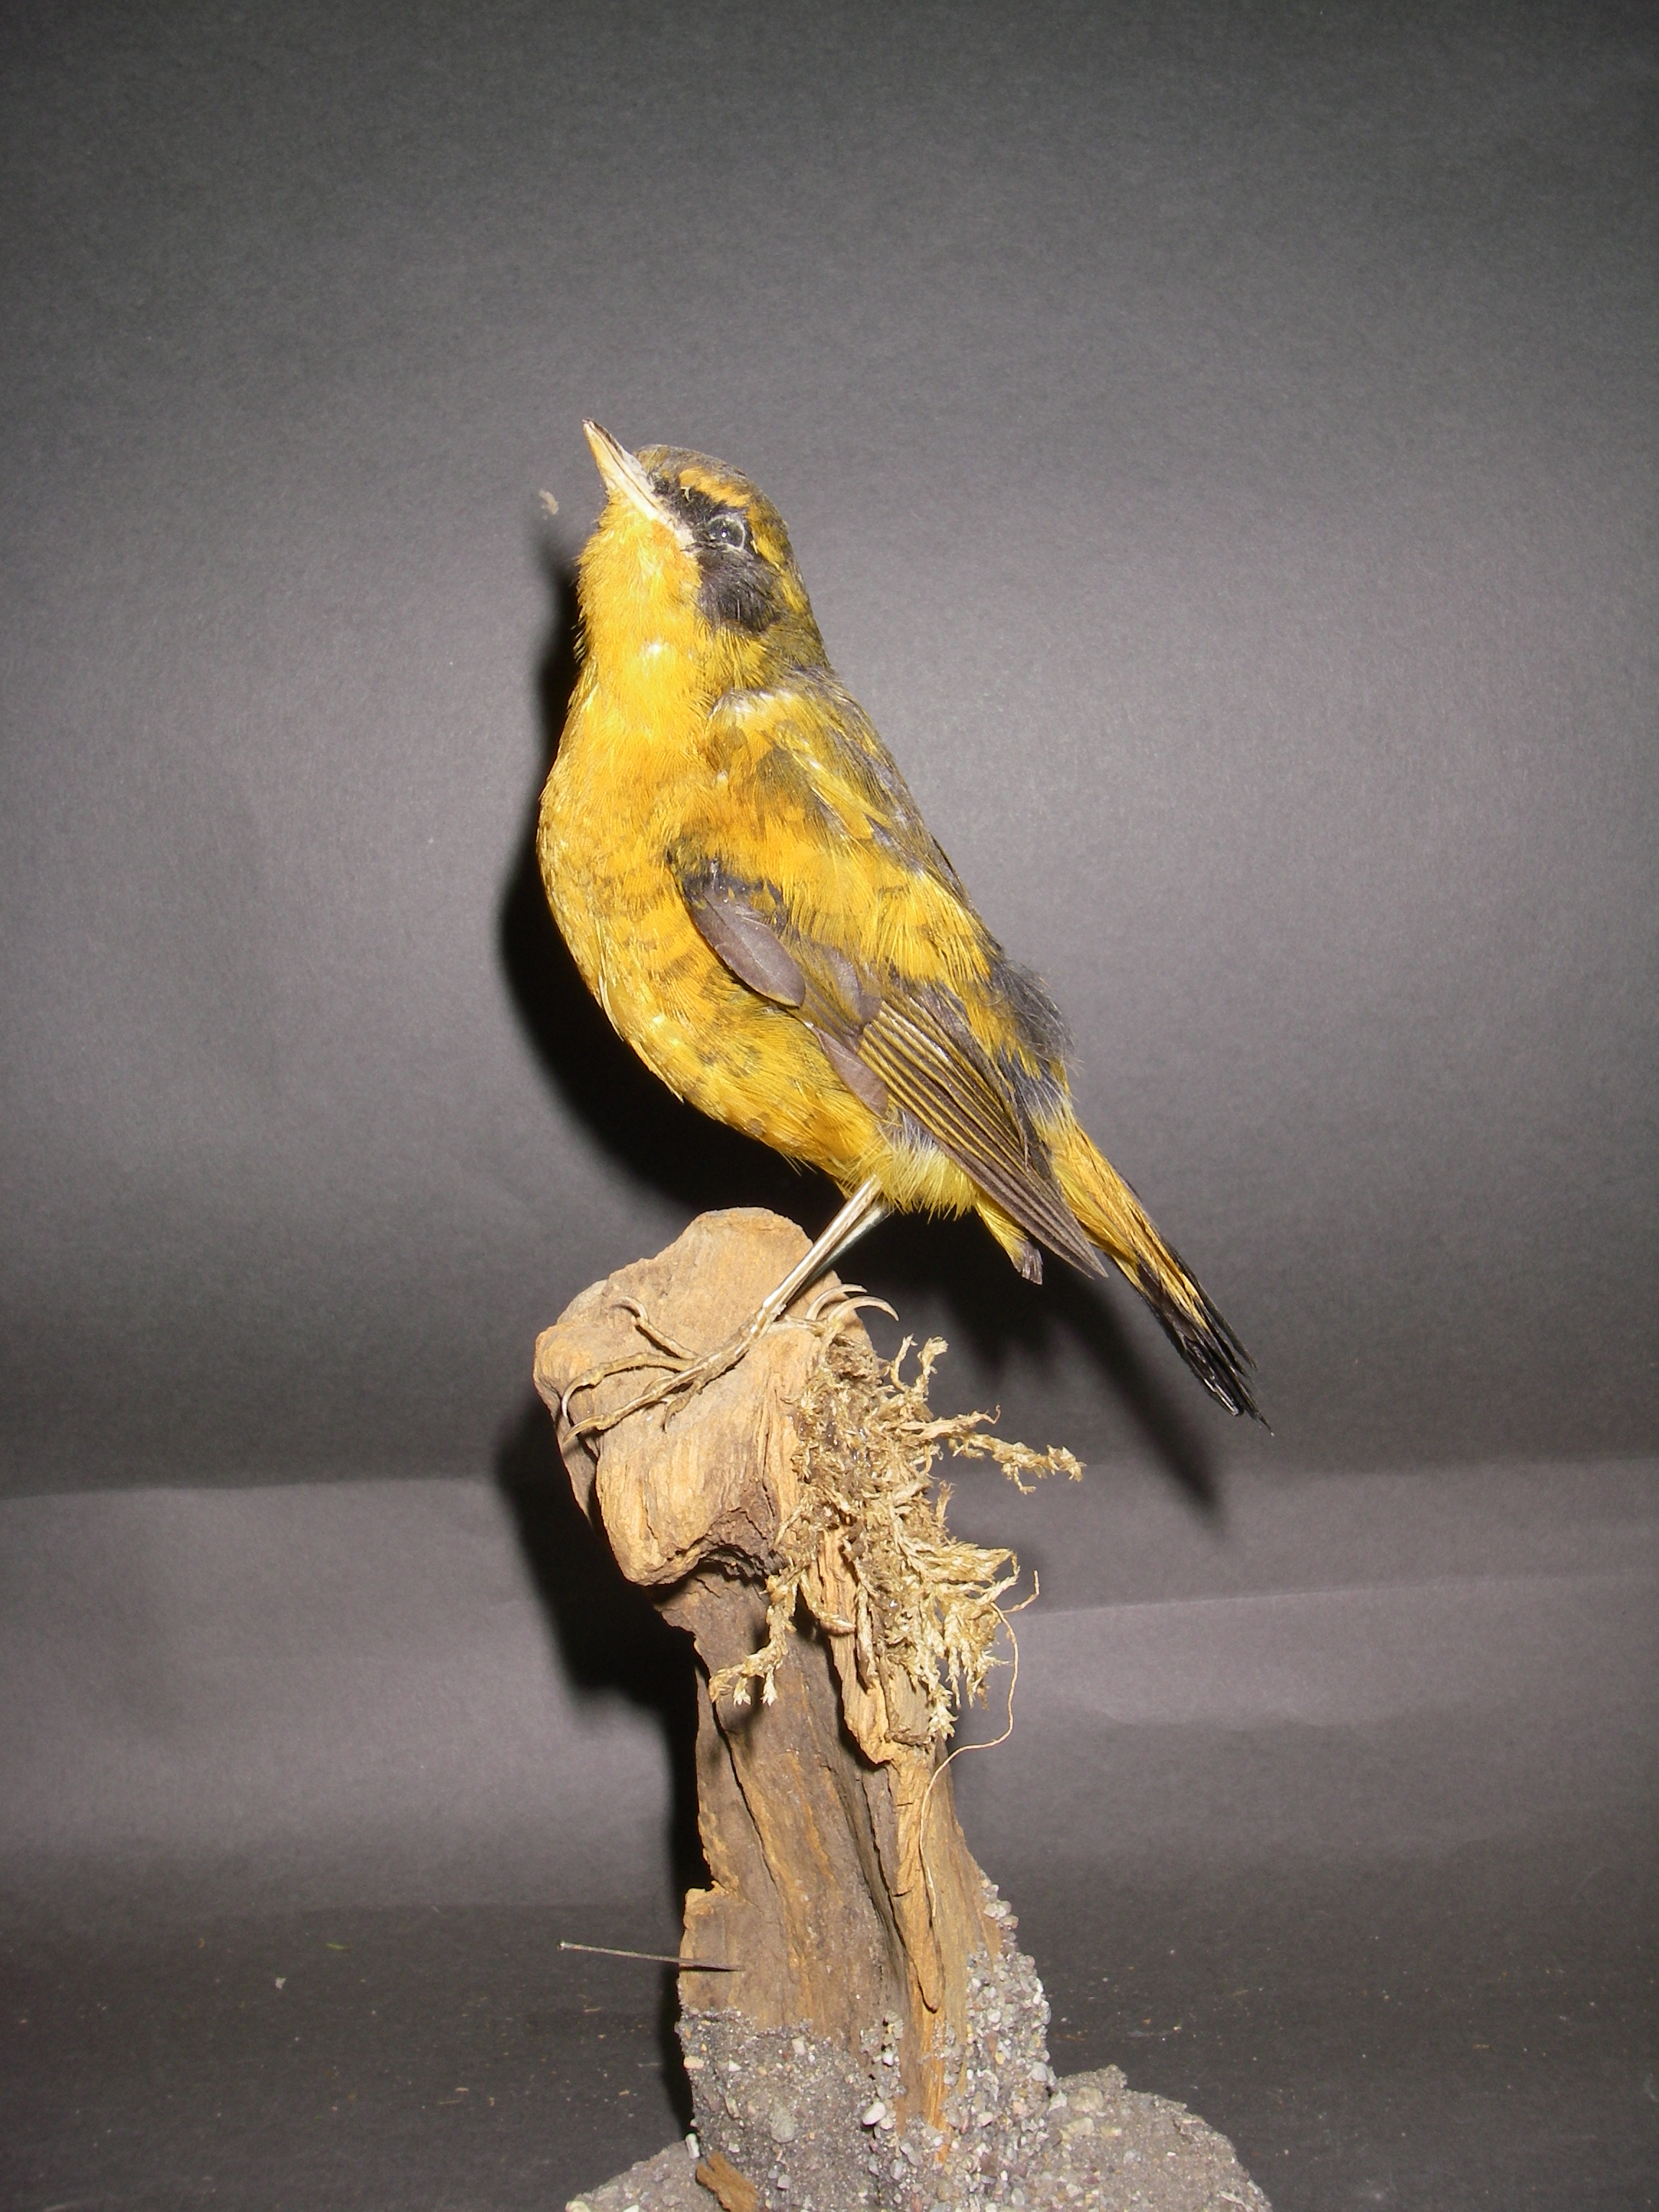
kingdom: Animalia
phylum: Chordata
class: Aves
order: Passeriformes
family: Muscicapidae
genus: Tarsiger
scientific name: Tarsiger chrysaeus
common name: Golden bush robin
